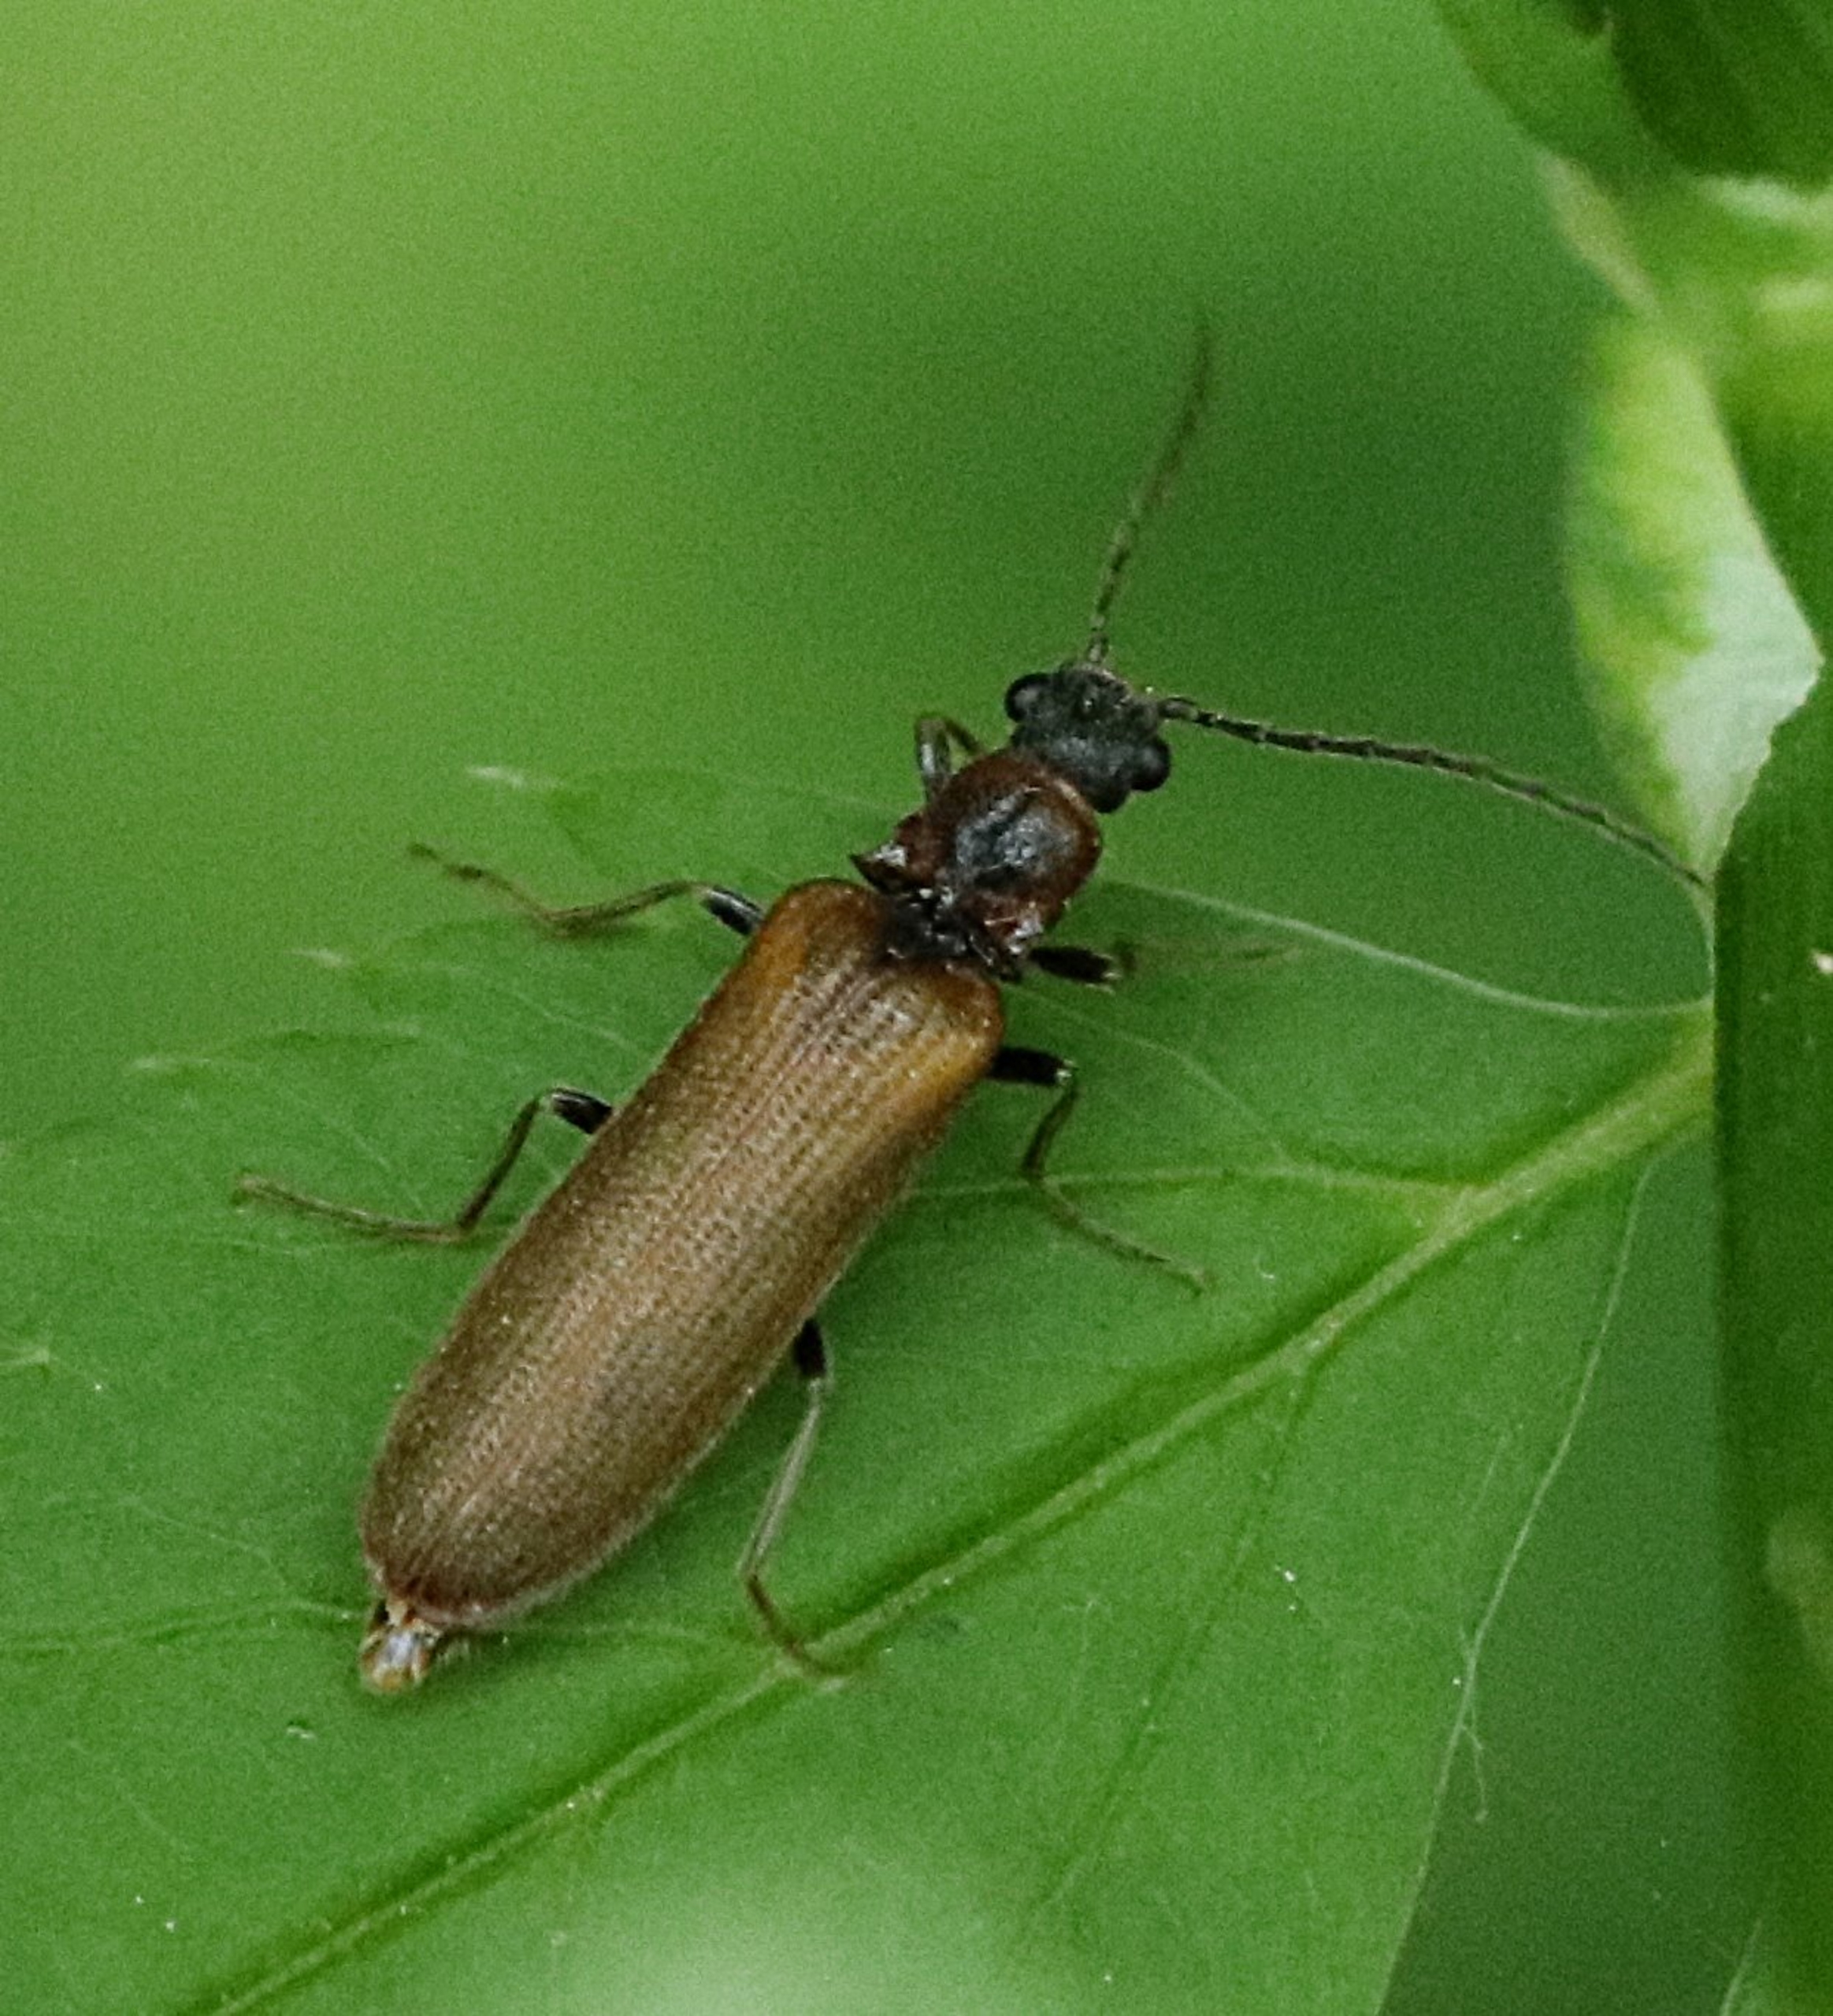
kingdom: Animalia
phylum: Arthropoda
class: Insecta
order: Coleoptera
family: Elateridae
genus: Denticollis
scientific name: Denticollis linearis
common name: Almindelig sirsmælder
